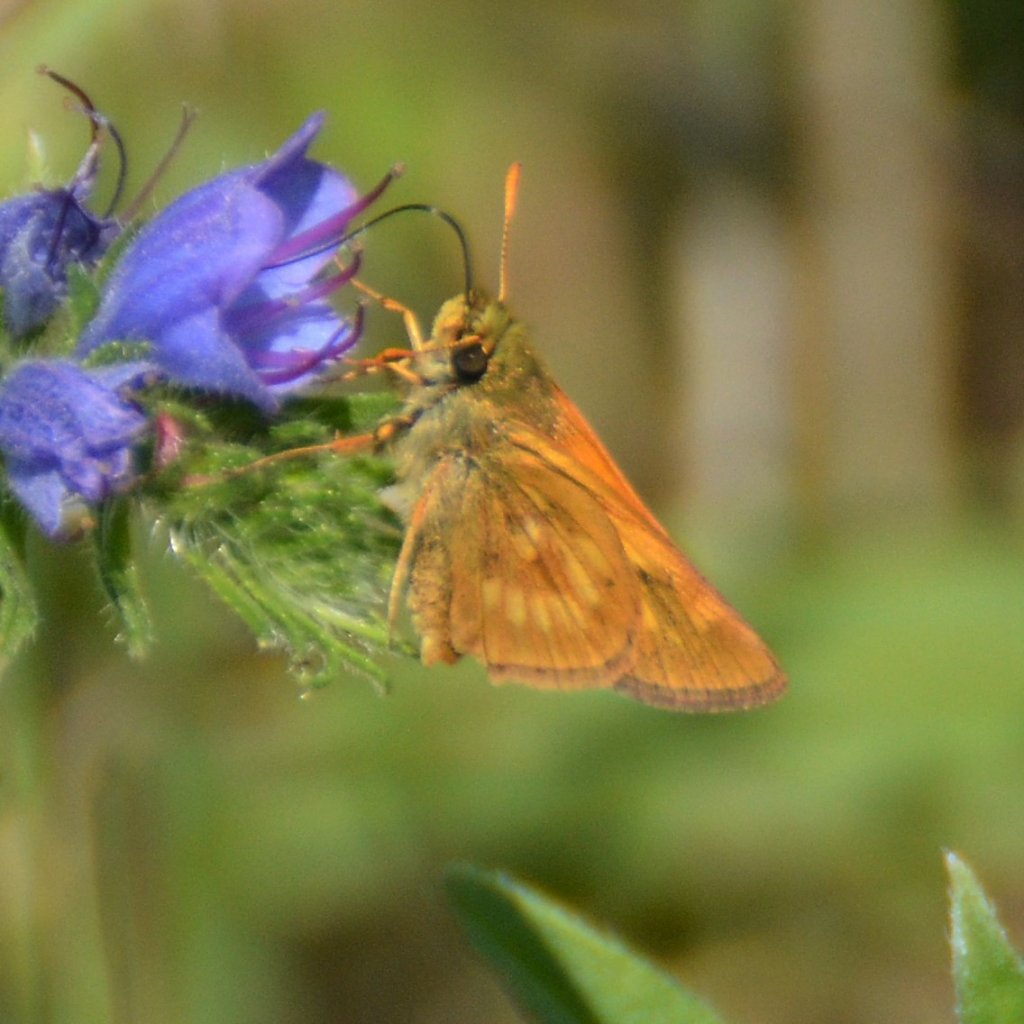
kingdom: Animalia
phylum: Arthropoda
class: Insecta
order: Lepidoptera
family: Hesperiidae
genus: Polites
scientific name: Polites
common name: Long Dash Skipper
